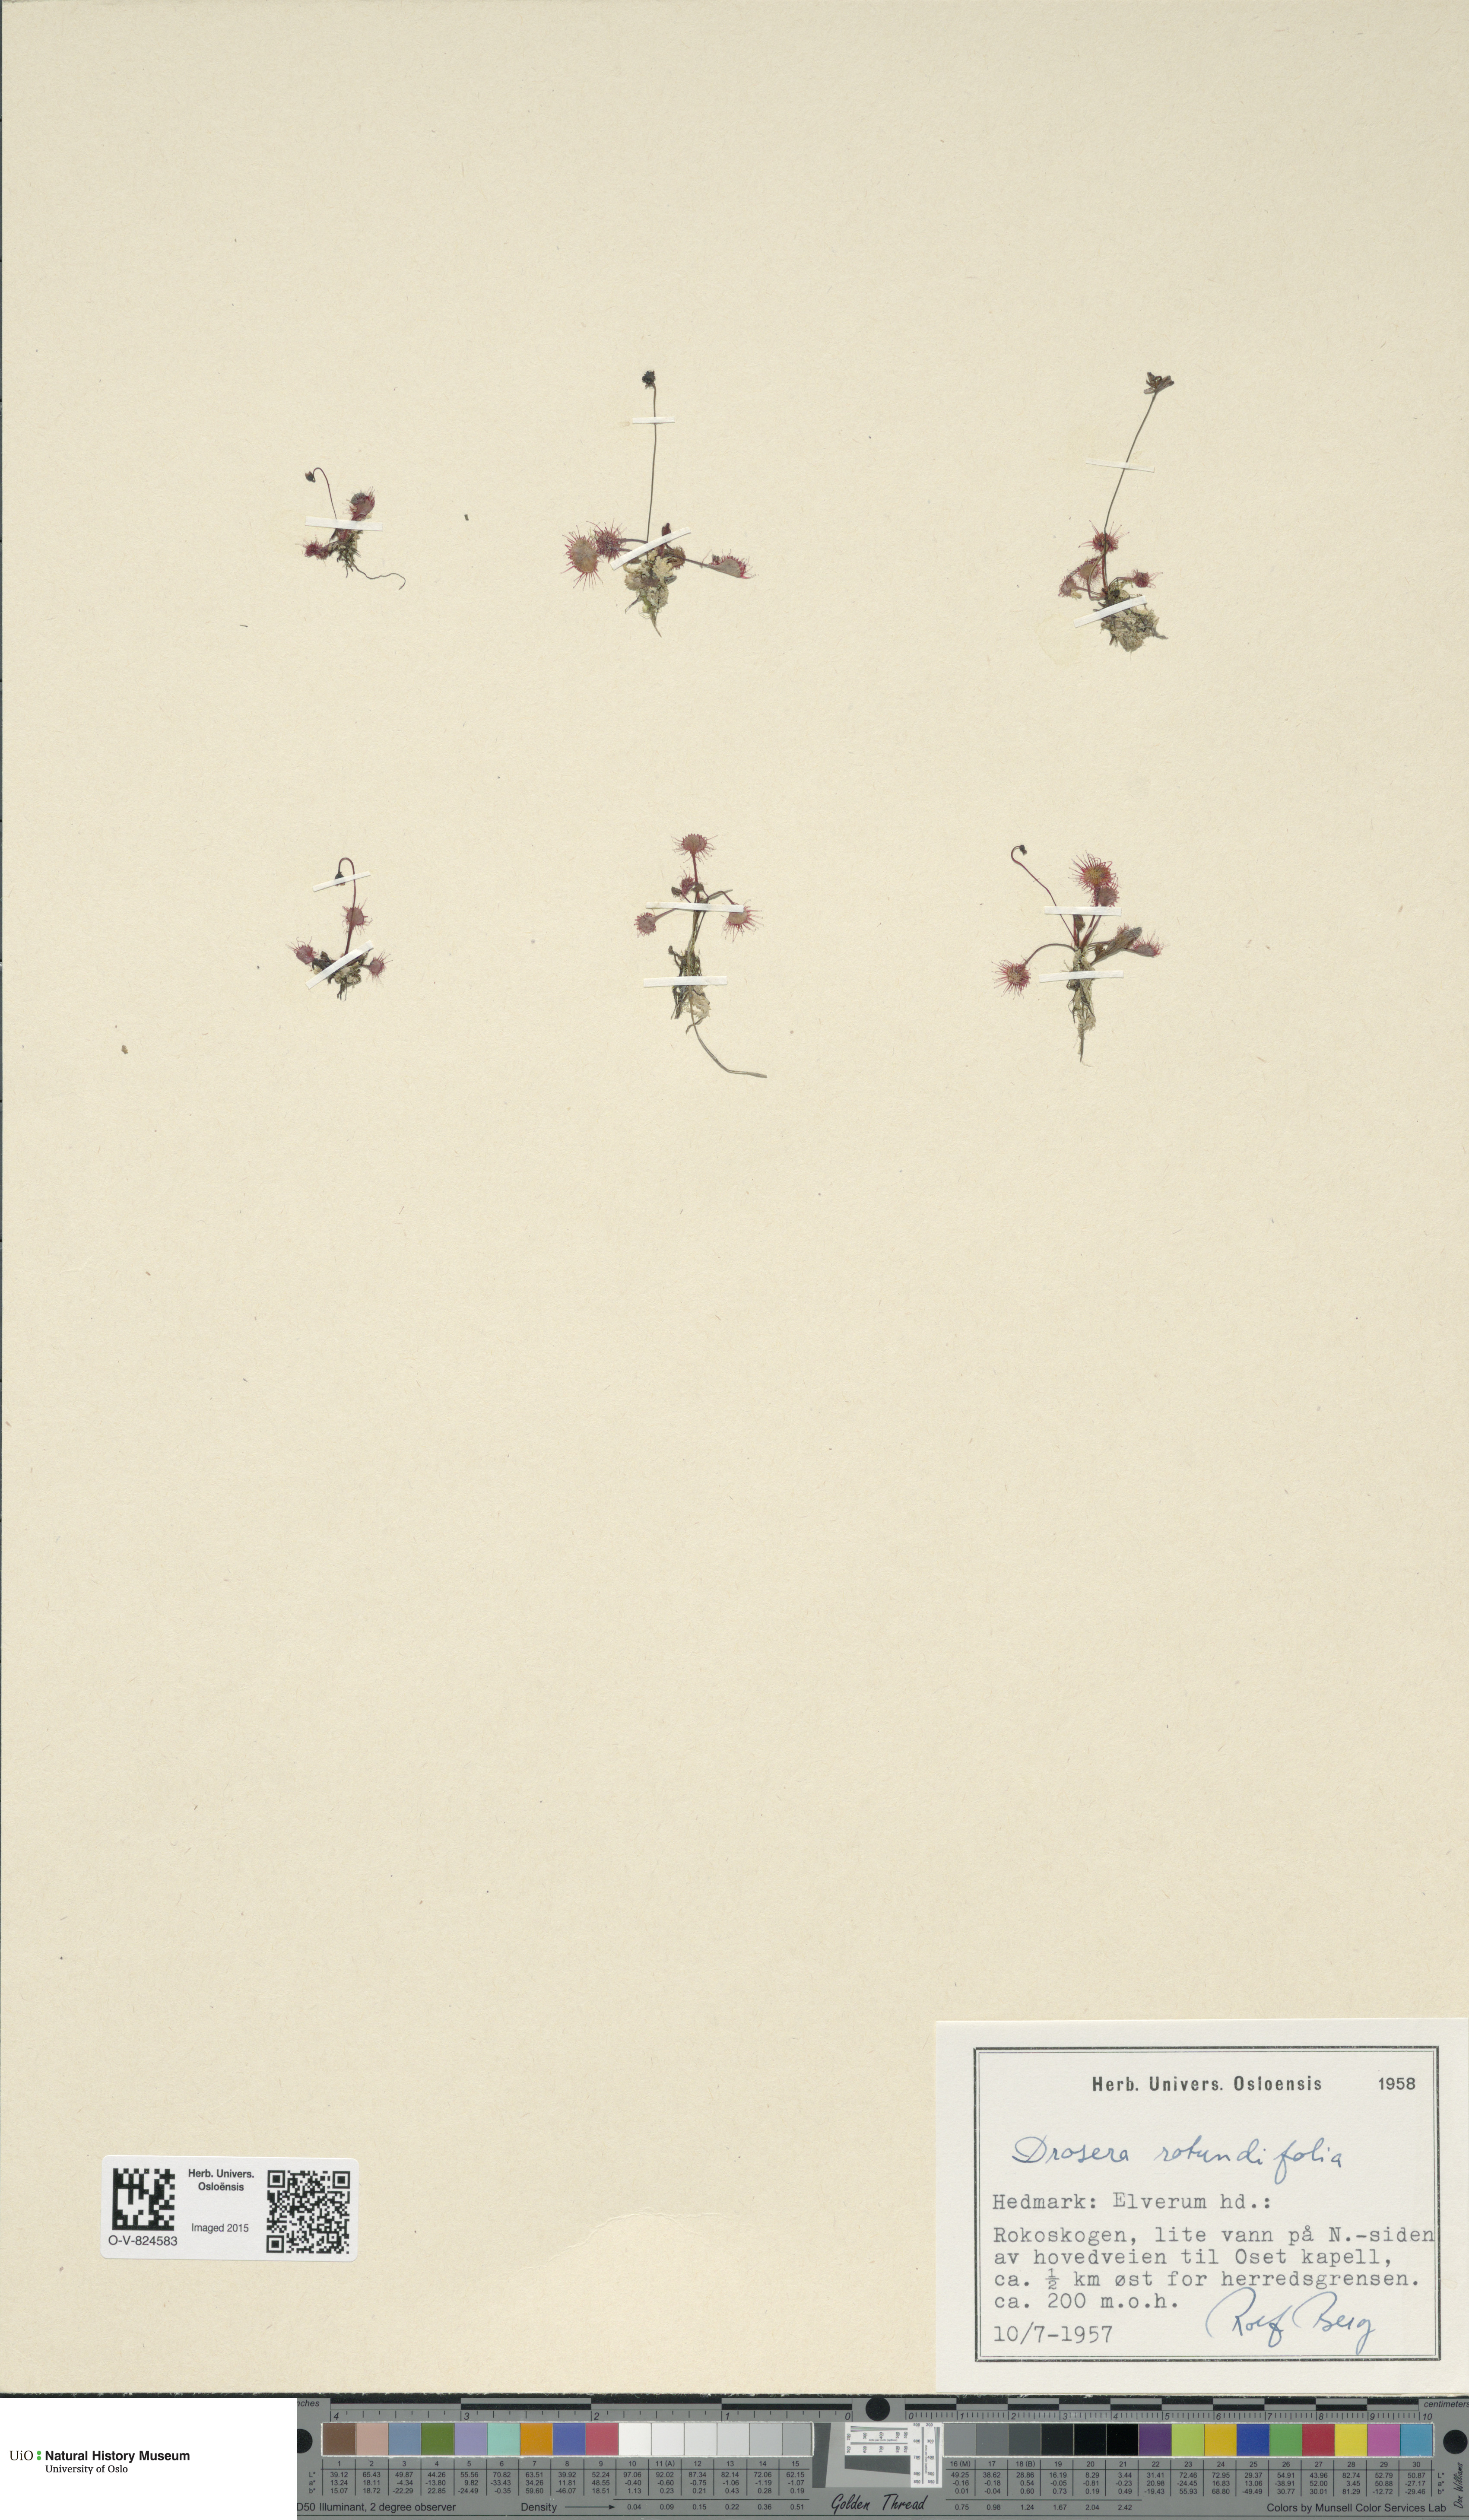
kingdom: Plantae
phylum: Tracheophyta
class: Magnoliopsida
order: Caryophyllales
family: Droseraceae
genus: Drosera
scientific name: Drosera rotundifolia
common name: Round-leaved sundew
